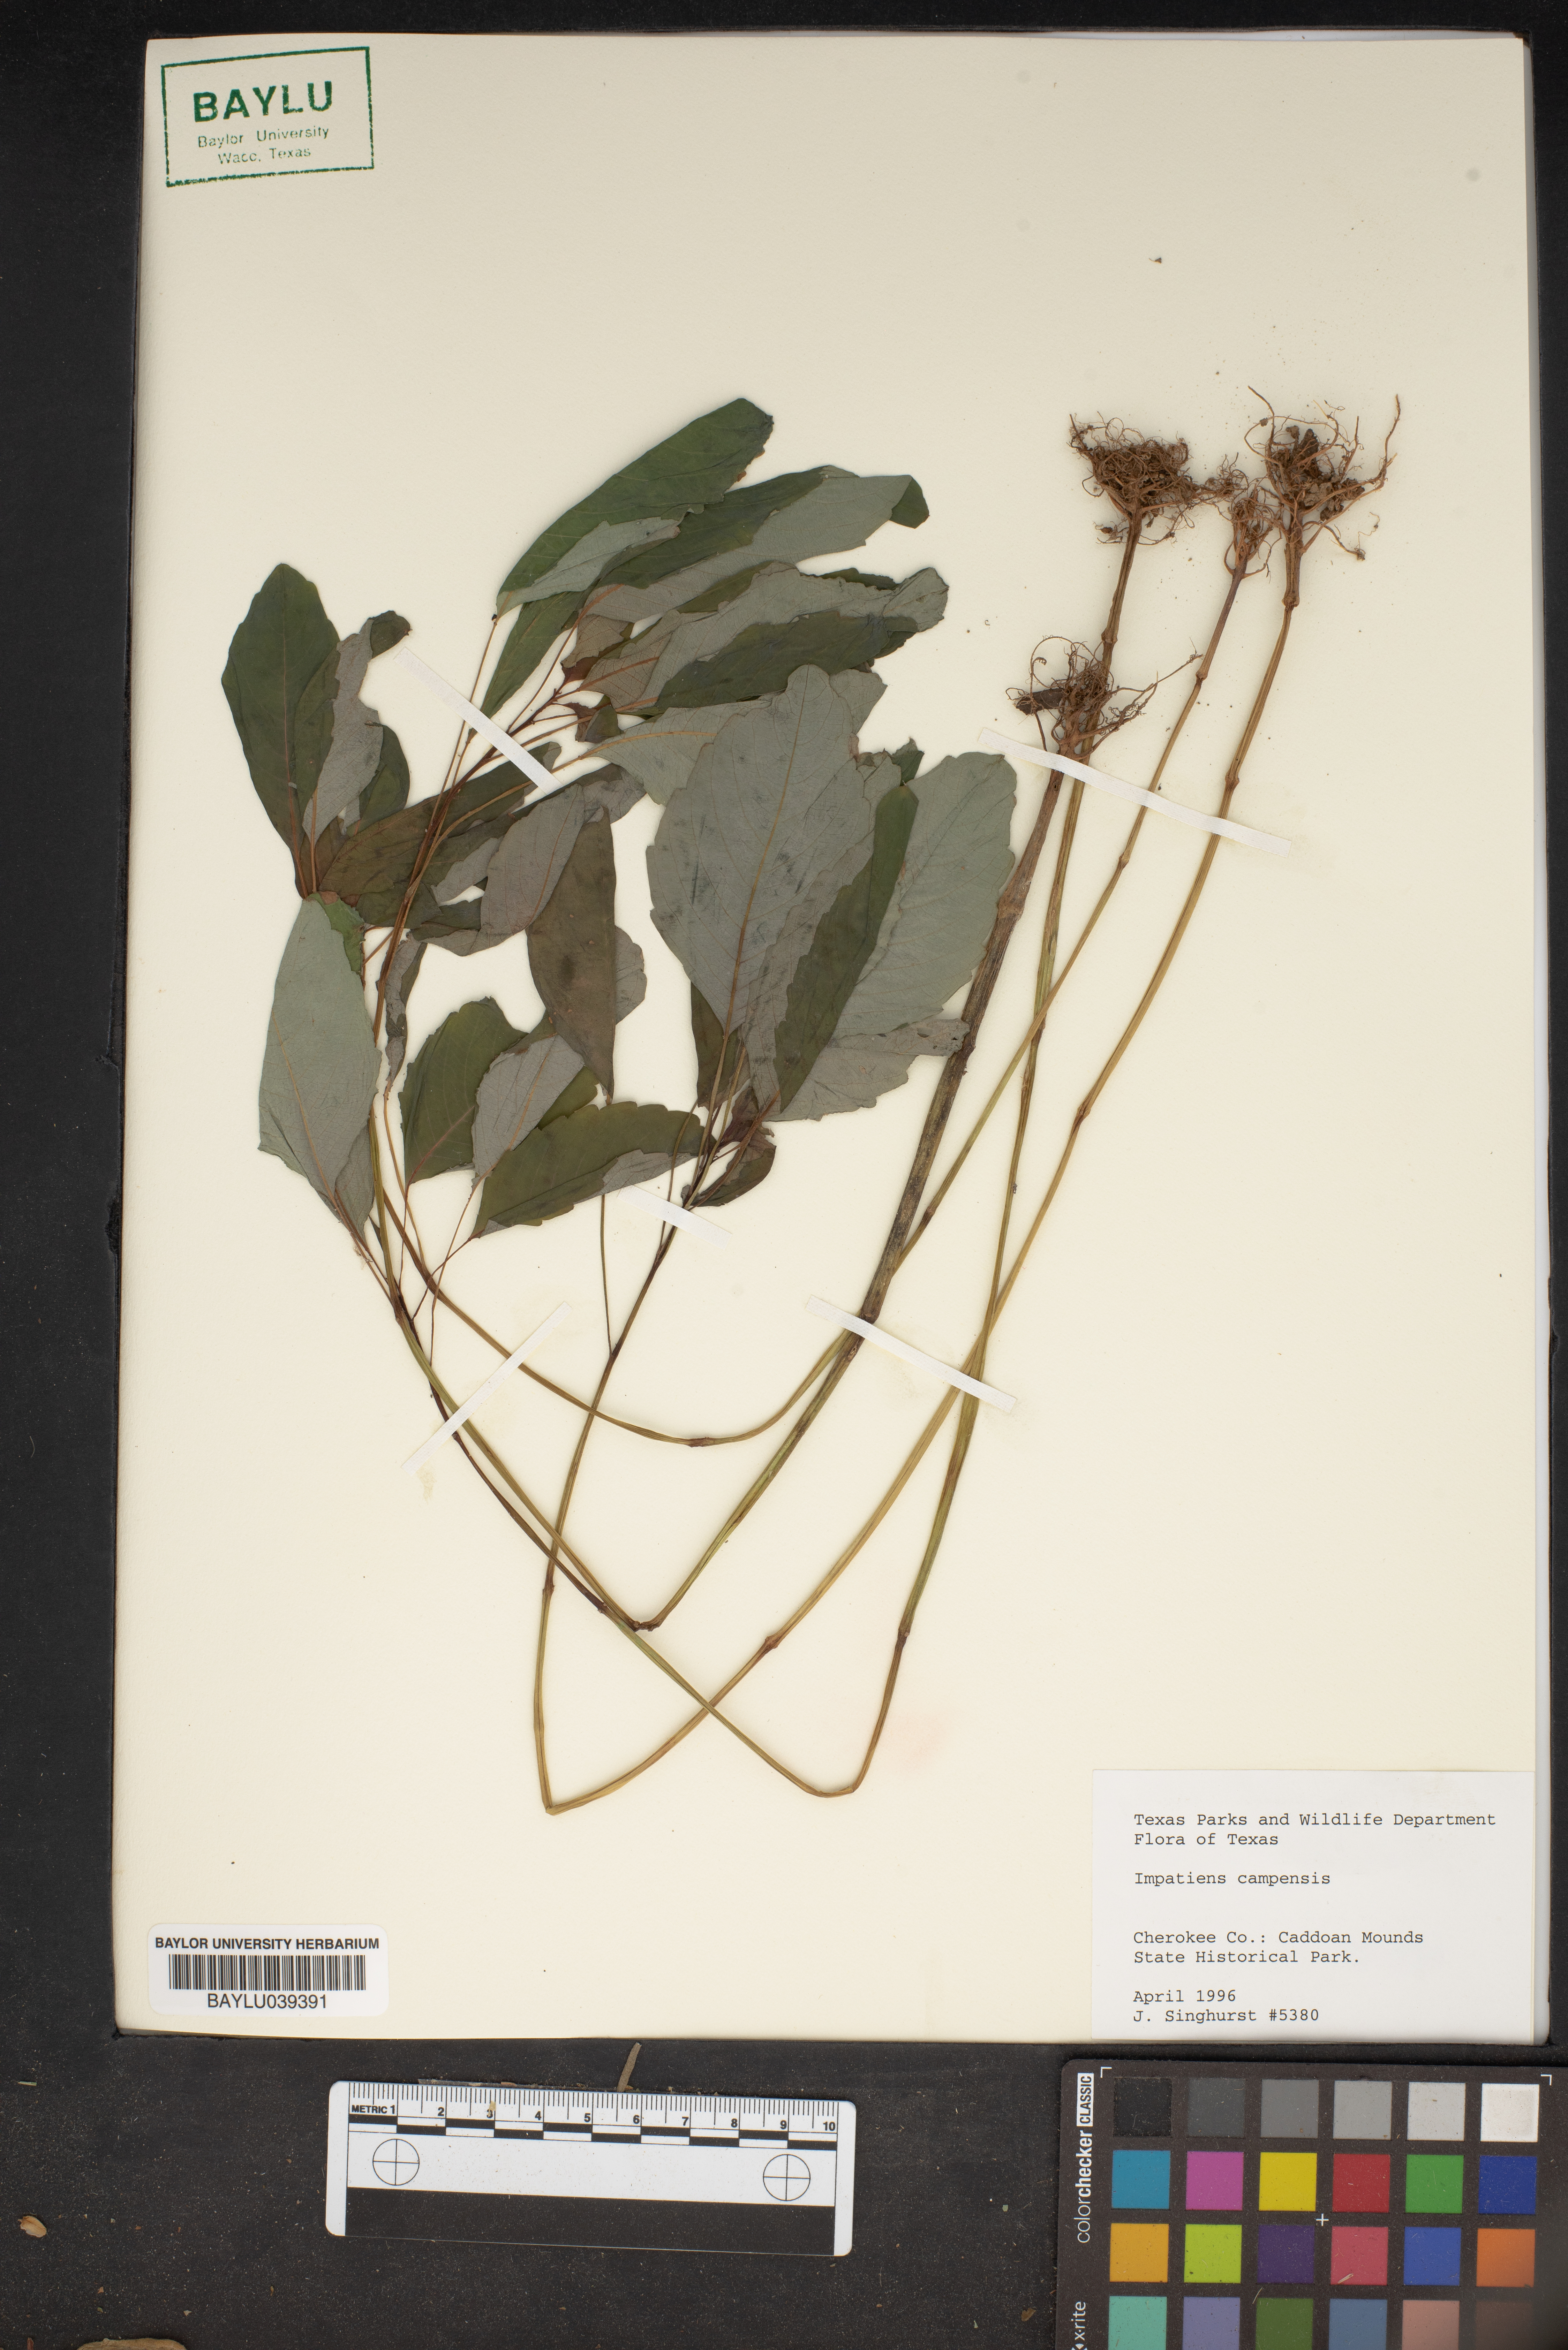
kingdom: Plantae
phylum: Tracheophyta
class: Magnoliopsida
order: Ericales
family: Balsaminaceae
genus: Impatiens
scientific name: Impatiens
